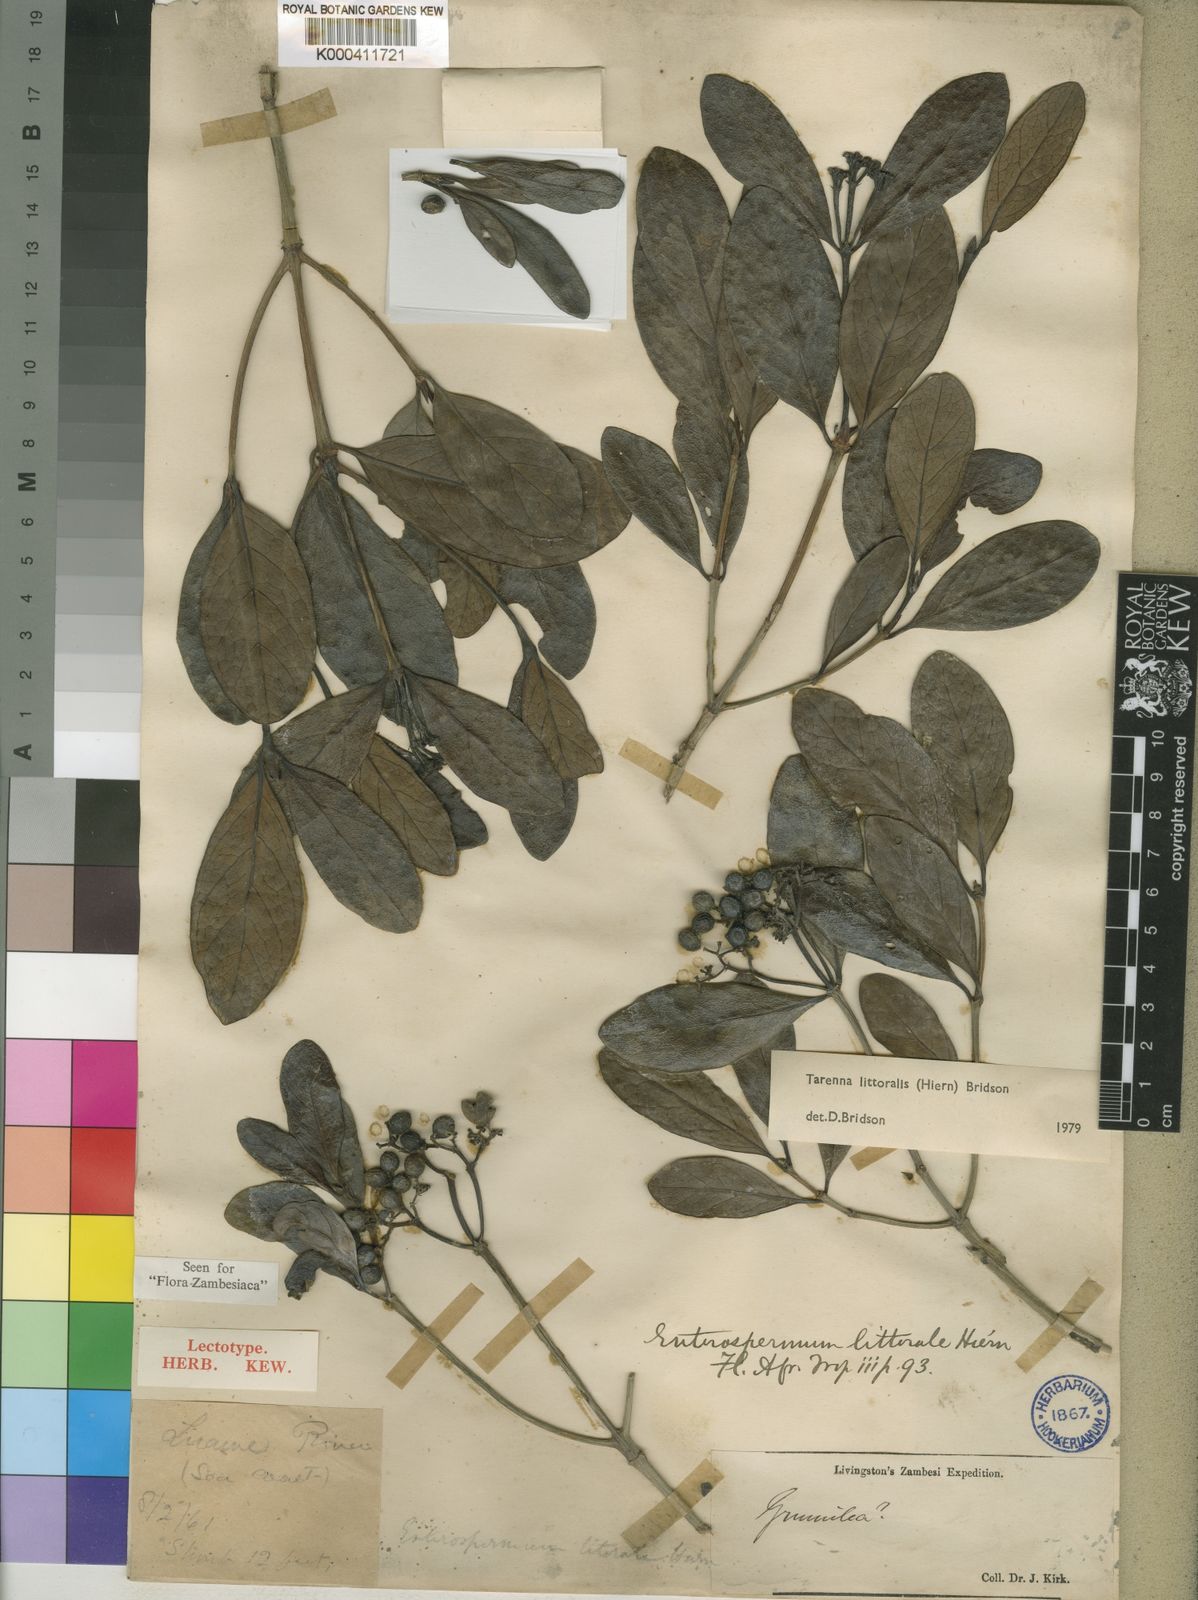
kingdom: Plantae
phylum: Tracheophyta
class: Magnoliopsida
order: Gentianales
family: Rubiaceae
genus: Coptosperma
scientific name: Coptosperma littorale
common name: Dune butterspoon
